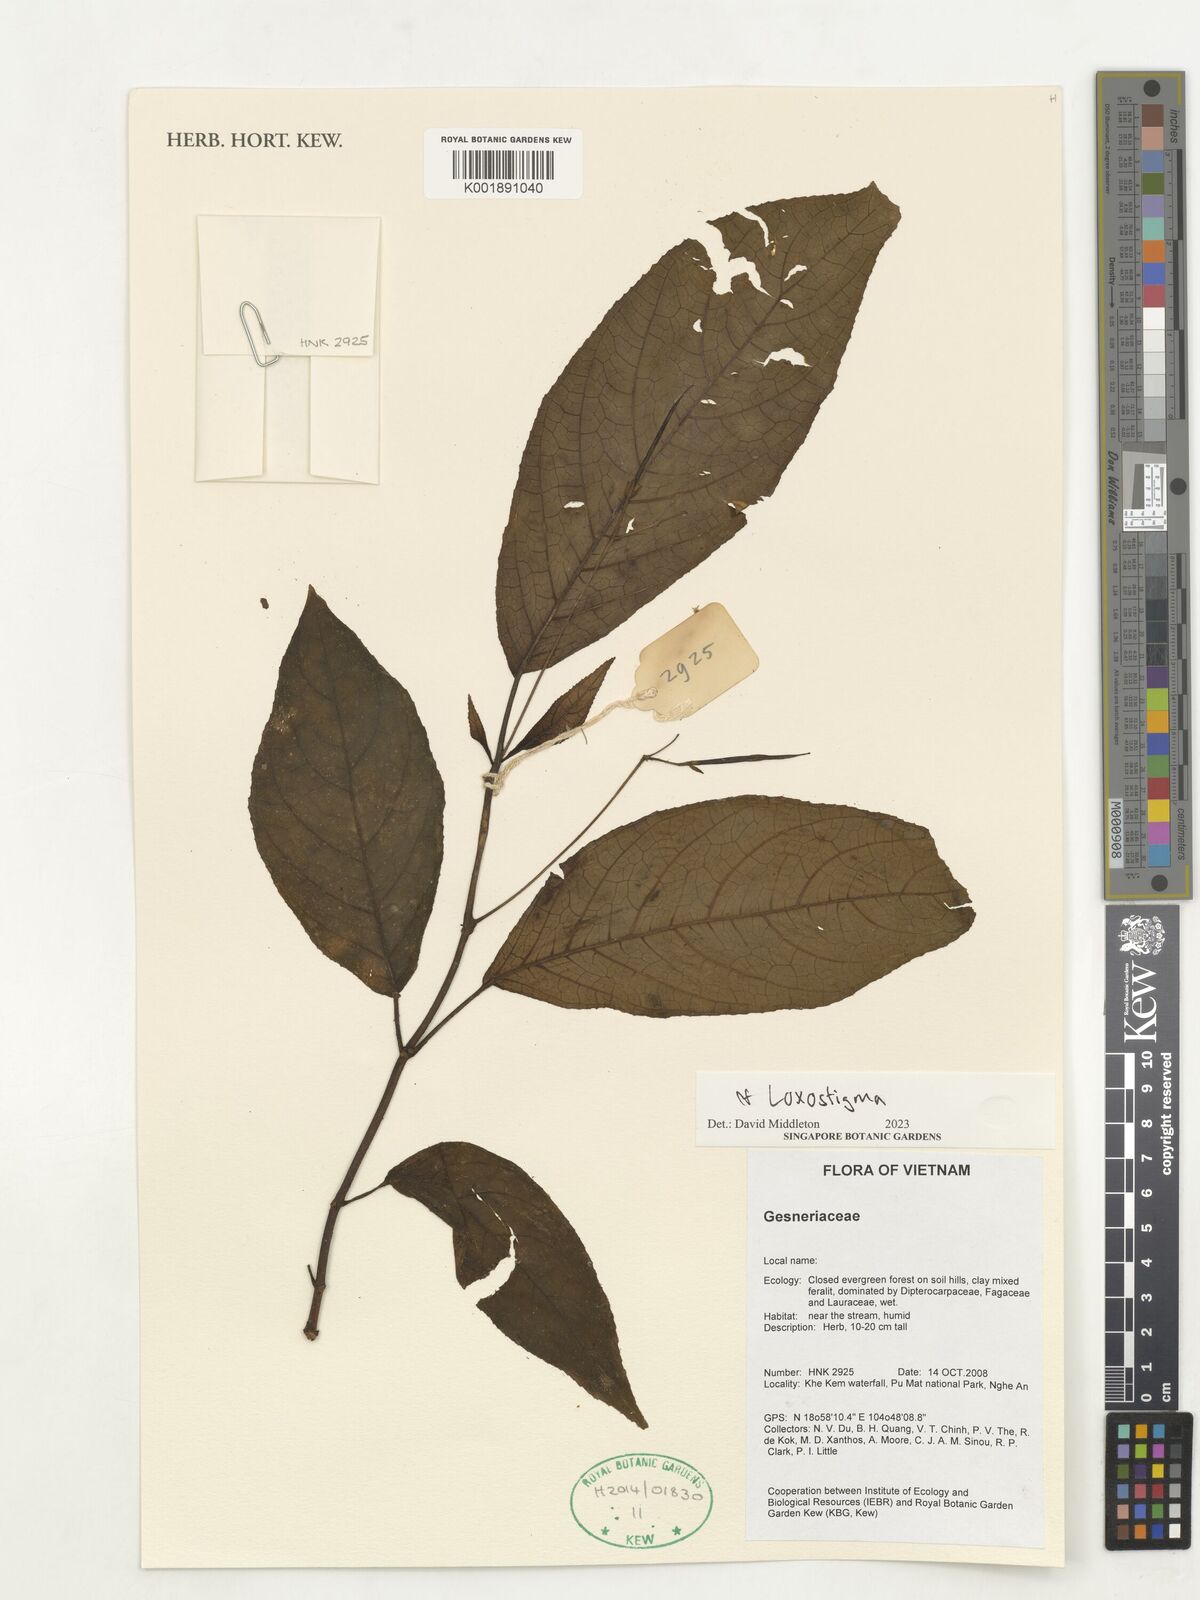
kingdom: Plantae
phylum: Tracheophyta
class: Magnoliopsida
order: Lamiales
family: Gesneriaceae
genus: Loxostigma
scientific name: Loxostigma
